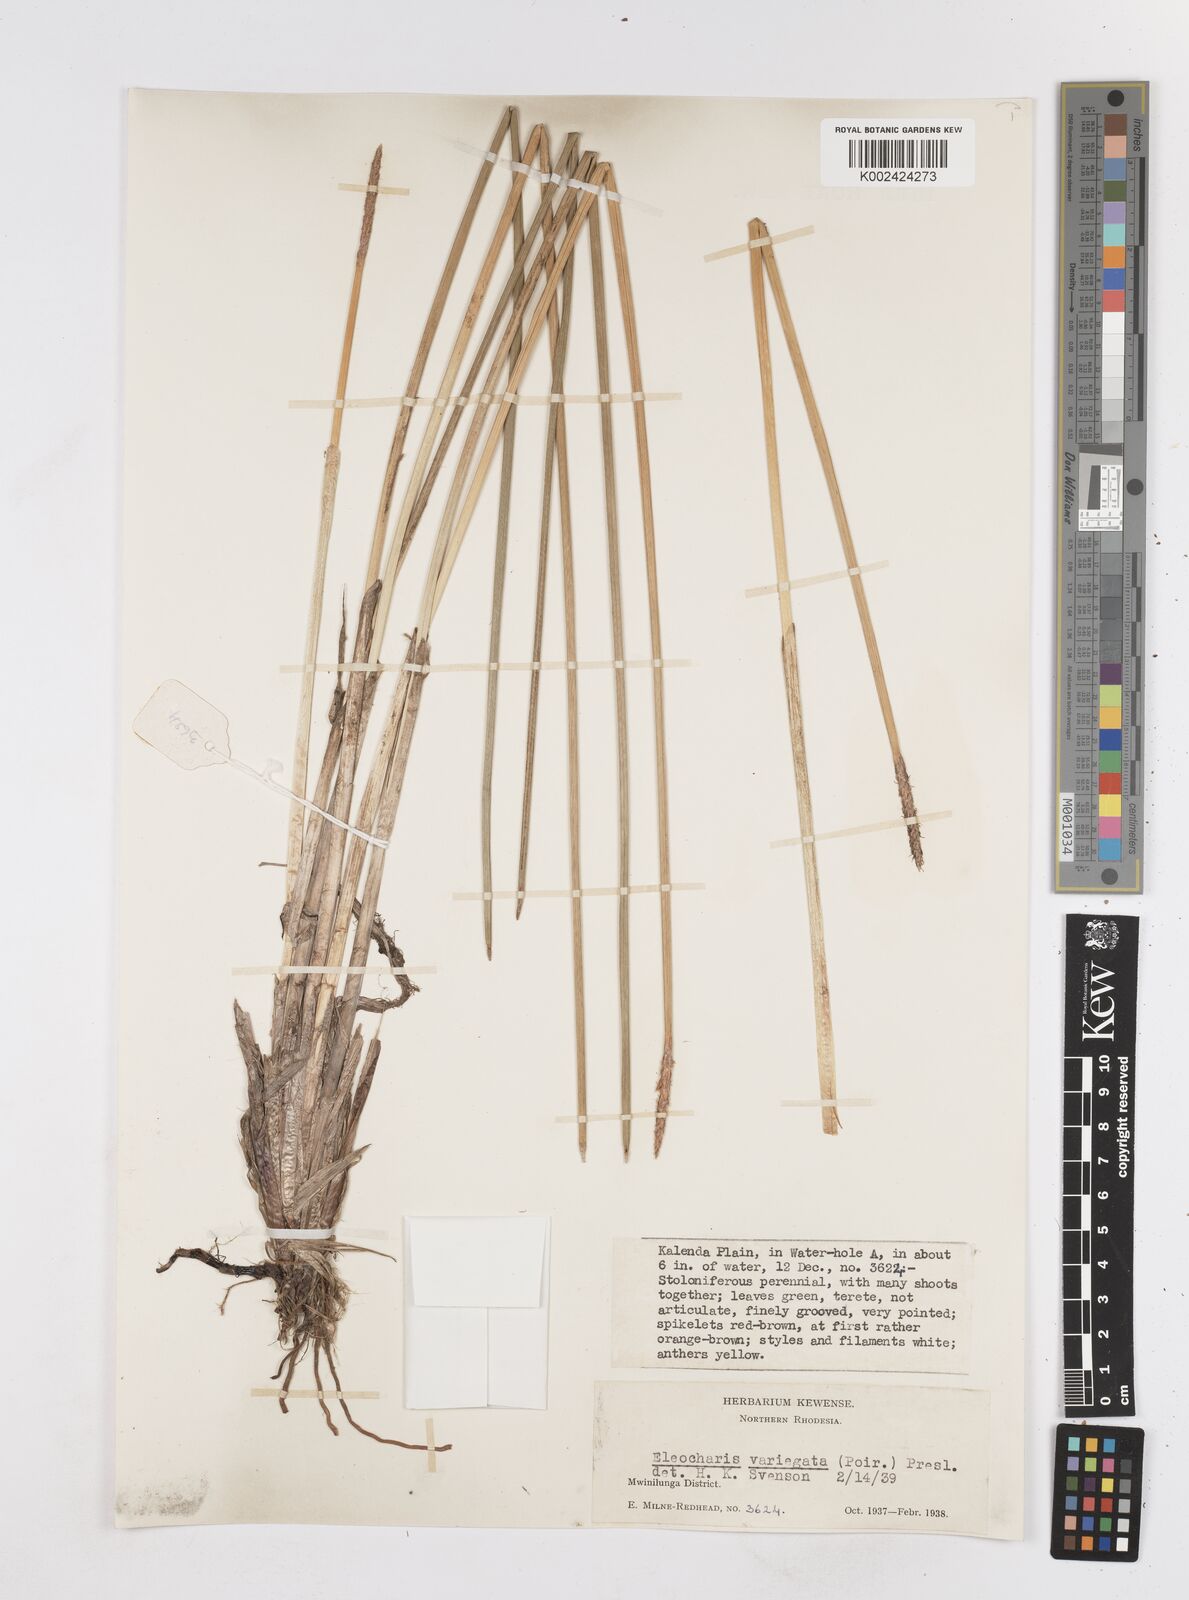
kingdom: Plantae
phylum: Tracheophyta
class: Liliopsida
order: Poales
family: Cyperaceae
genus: Eleocharis
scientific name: Eleocharis variegata
